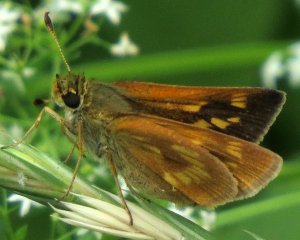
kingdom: Animalia
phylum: Arthropoda
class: Insecta
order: Lepidoptera
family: Hesperiidae
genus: Polites
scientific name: Polites
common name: Long Dash Skipper
